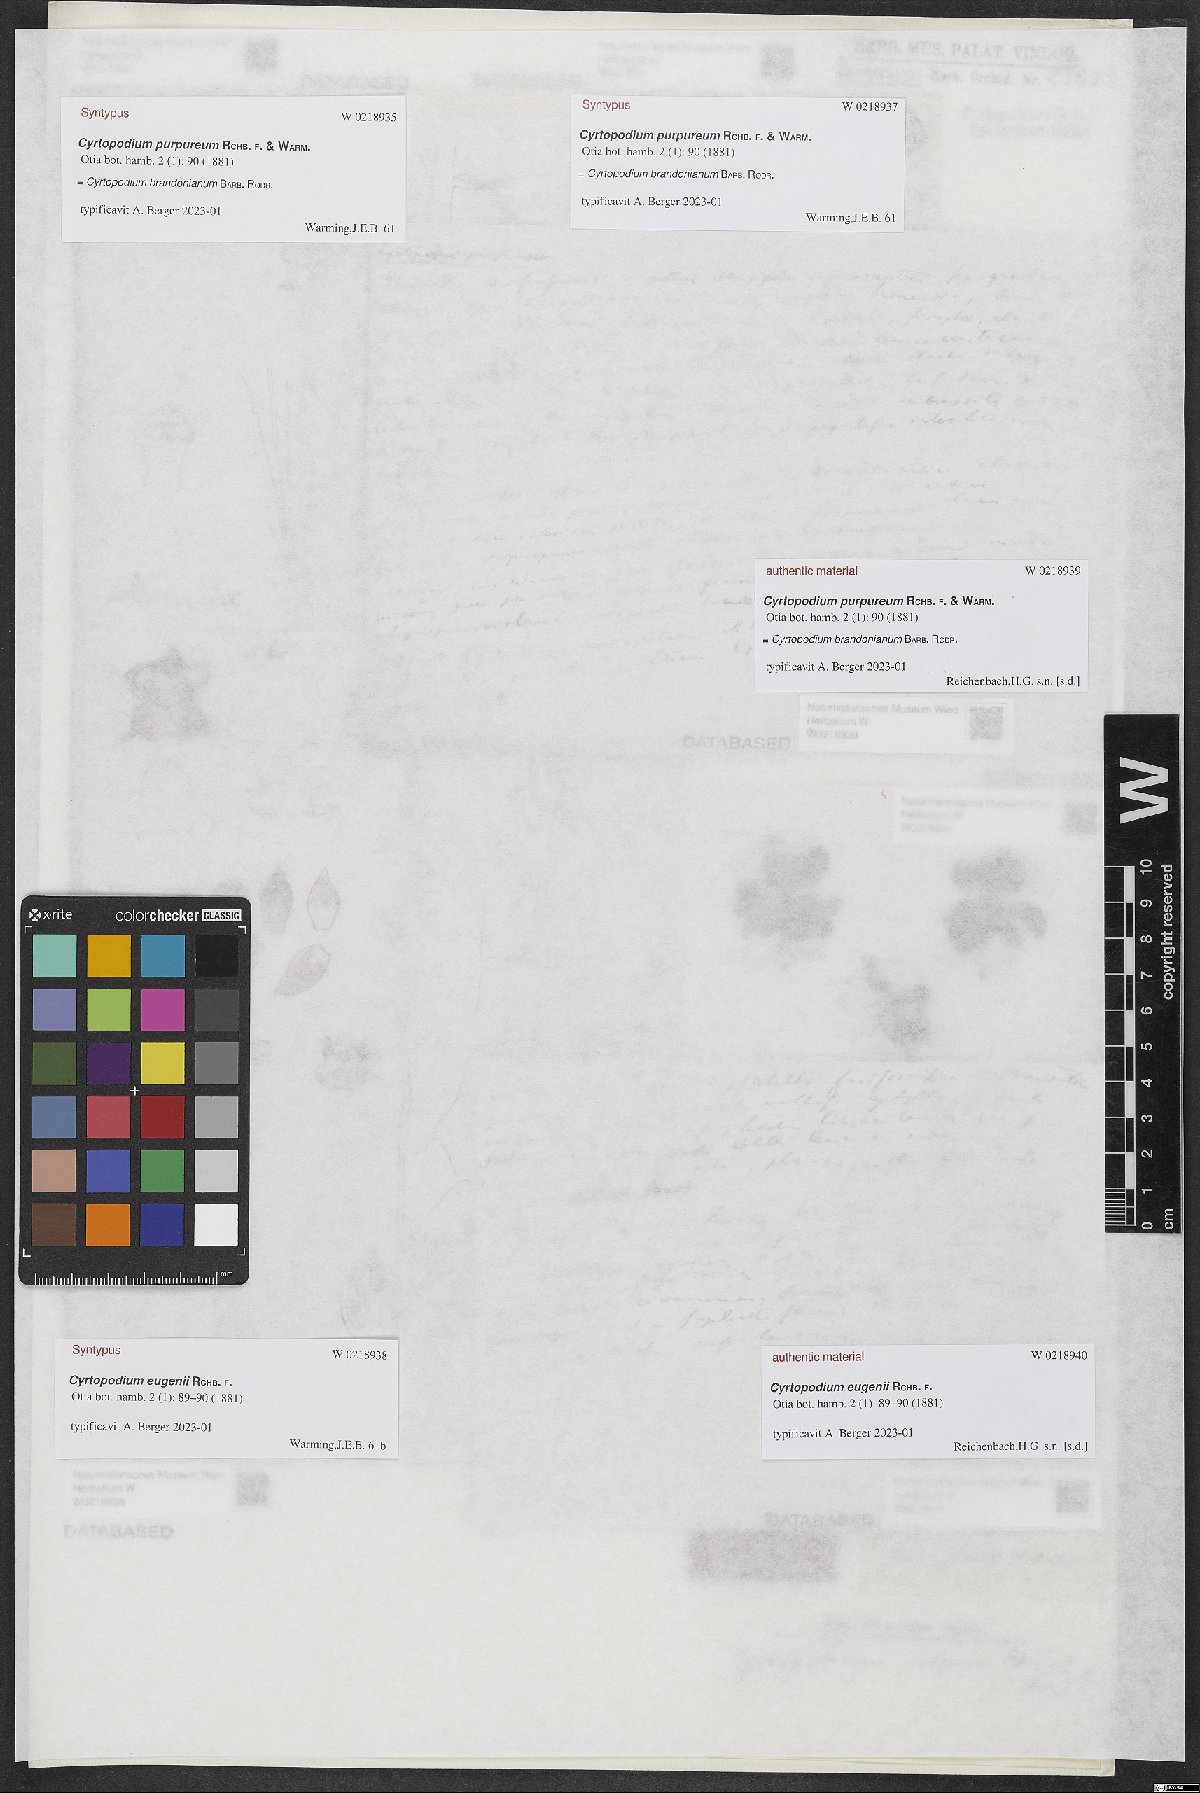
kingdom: Plantae
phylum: Tracheophyta
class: Liliopsida
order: Asparagales
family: Orchidaceae
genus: Cyrtopodium
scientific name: Cyrtopodium eugenii
